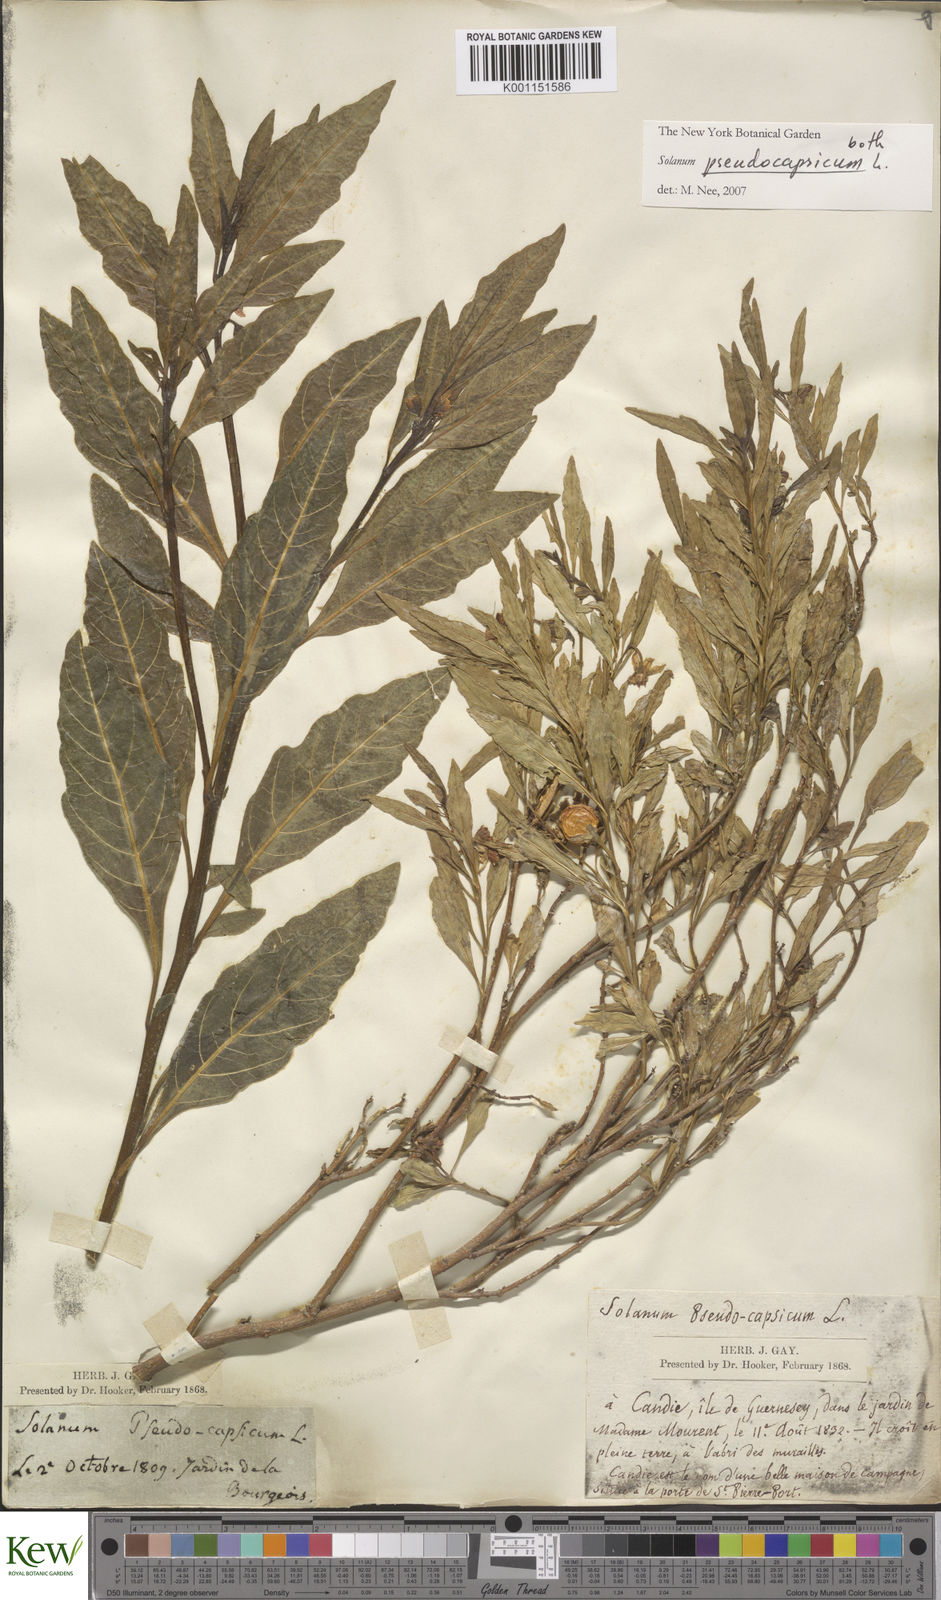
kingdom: Plantae
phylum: Tracheophyta
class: Magnoliopsida
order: Solanales
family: Solanaceae
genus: Solanum
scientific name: Solanum pseudocapsicum
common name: Jerusalem cherry
